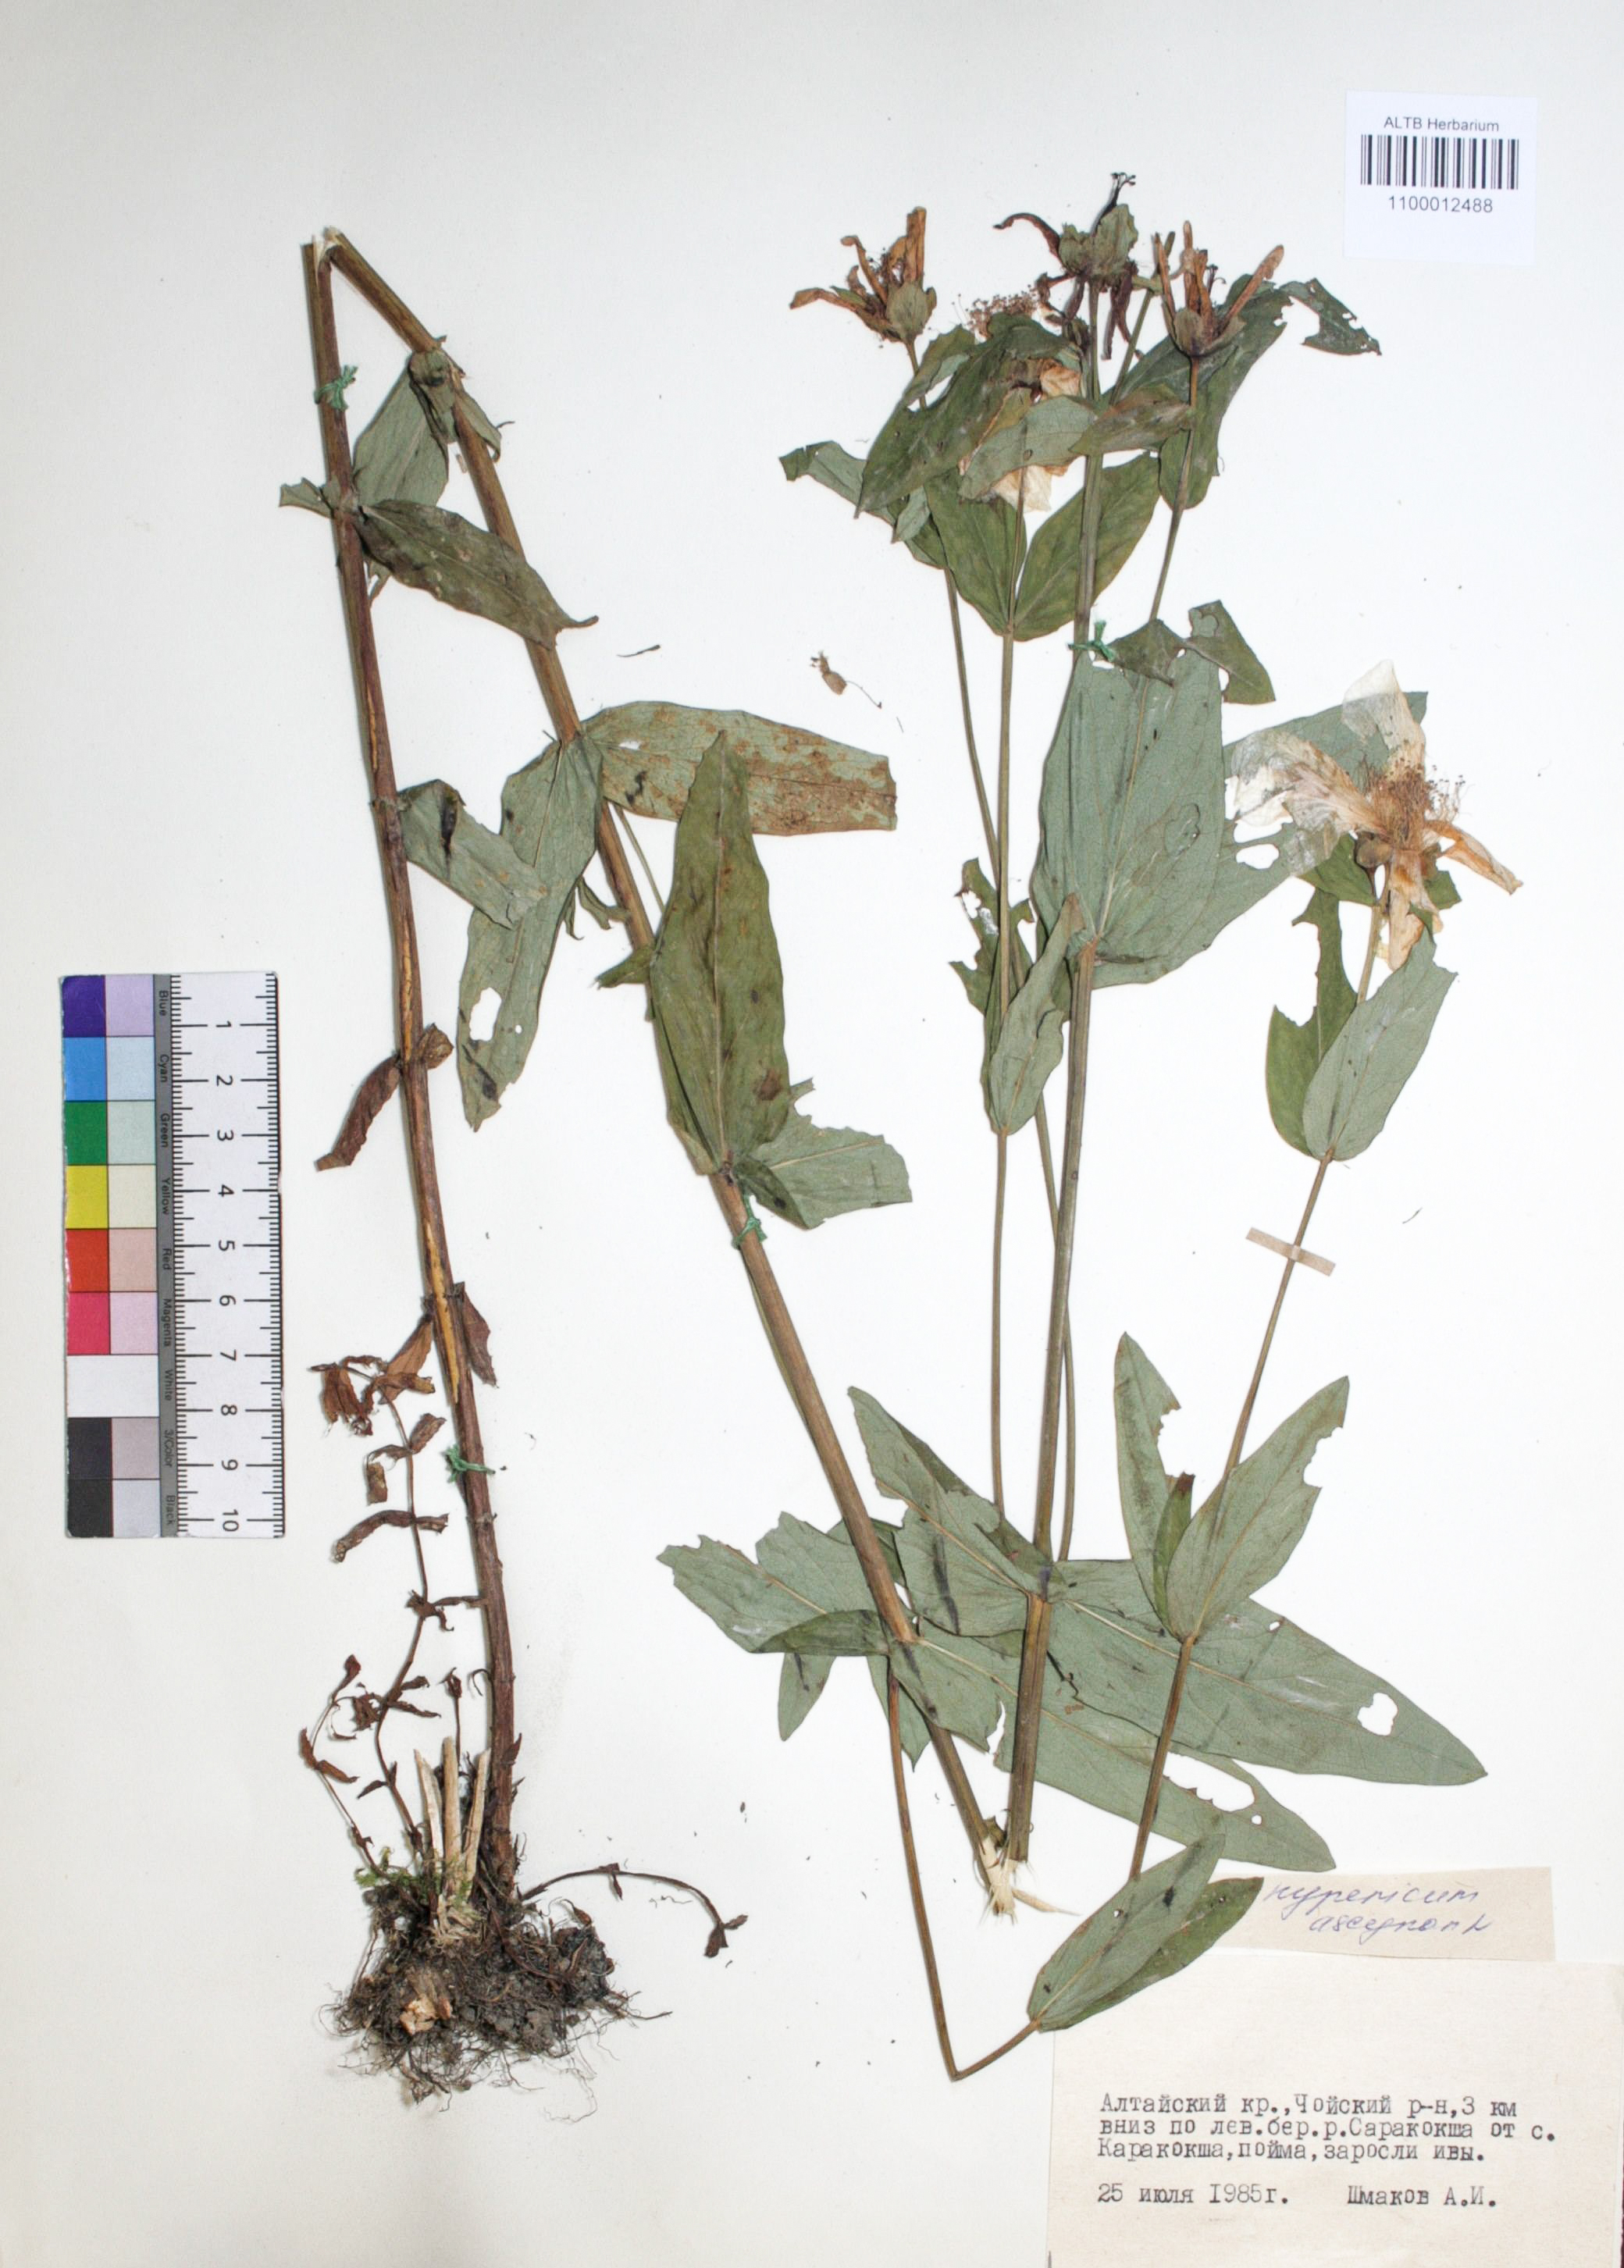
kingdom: Plantae
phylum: Tracheophyta
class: Magnoliopsida
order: Malpighiales
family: Hypericaceae
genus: Hypericum
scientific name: Hypericum ascyron
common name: Giant st. john's-wort
